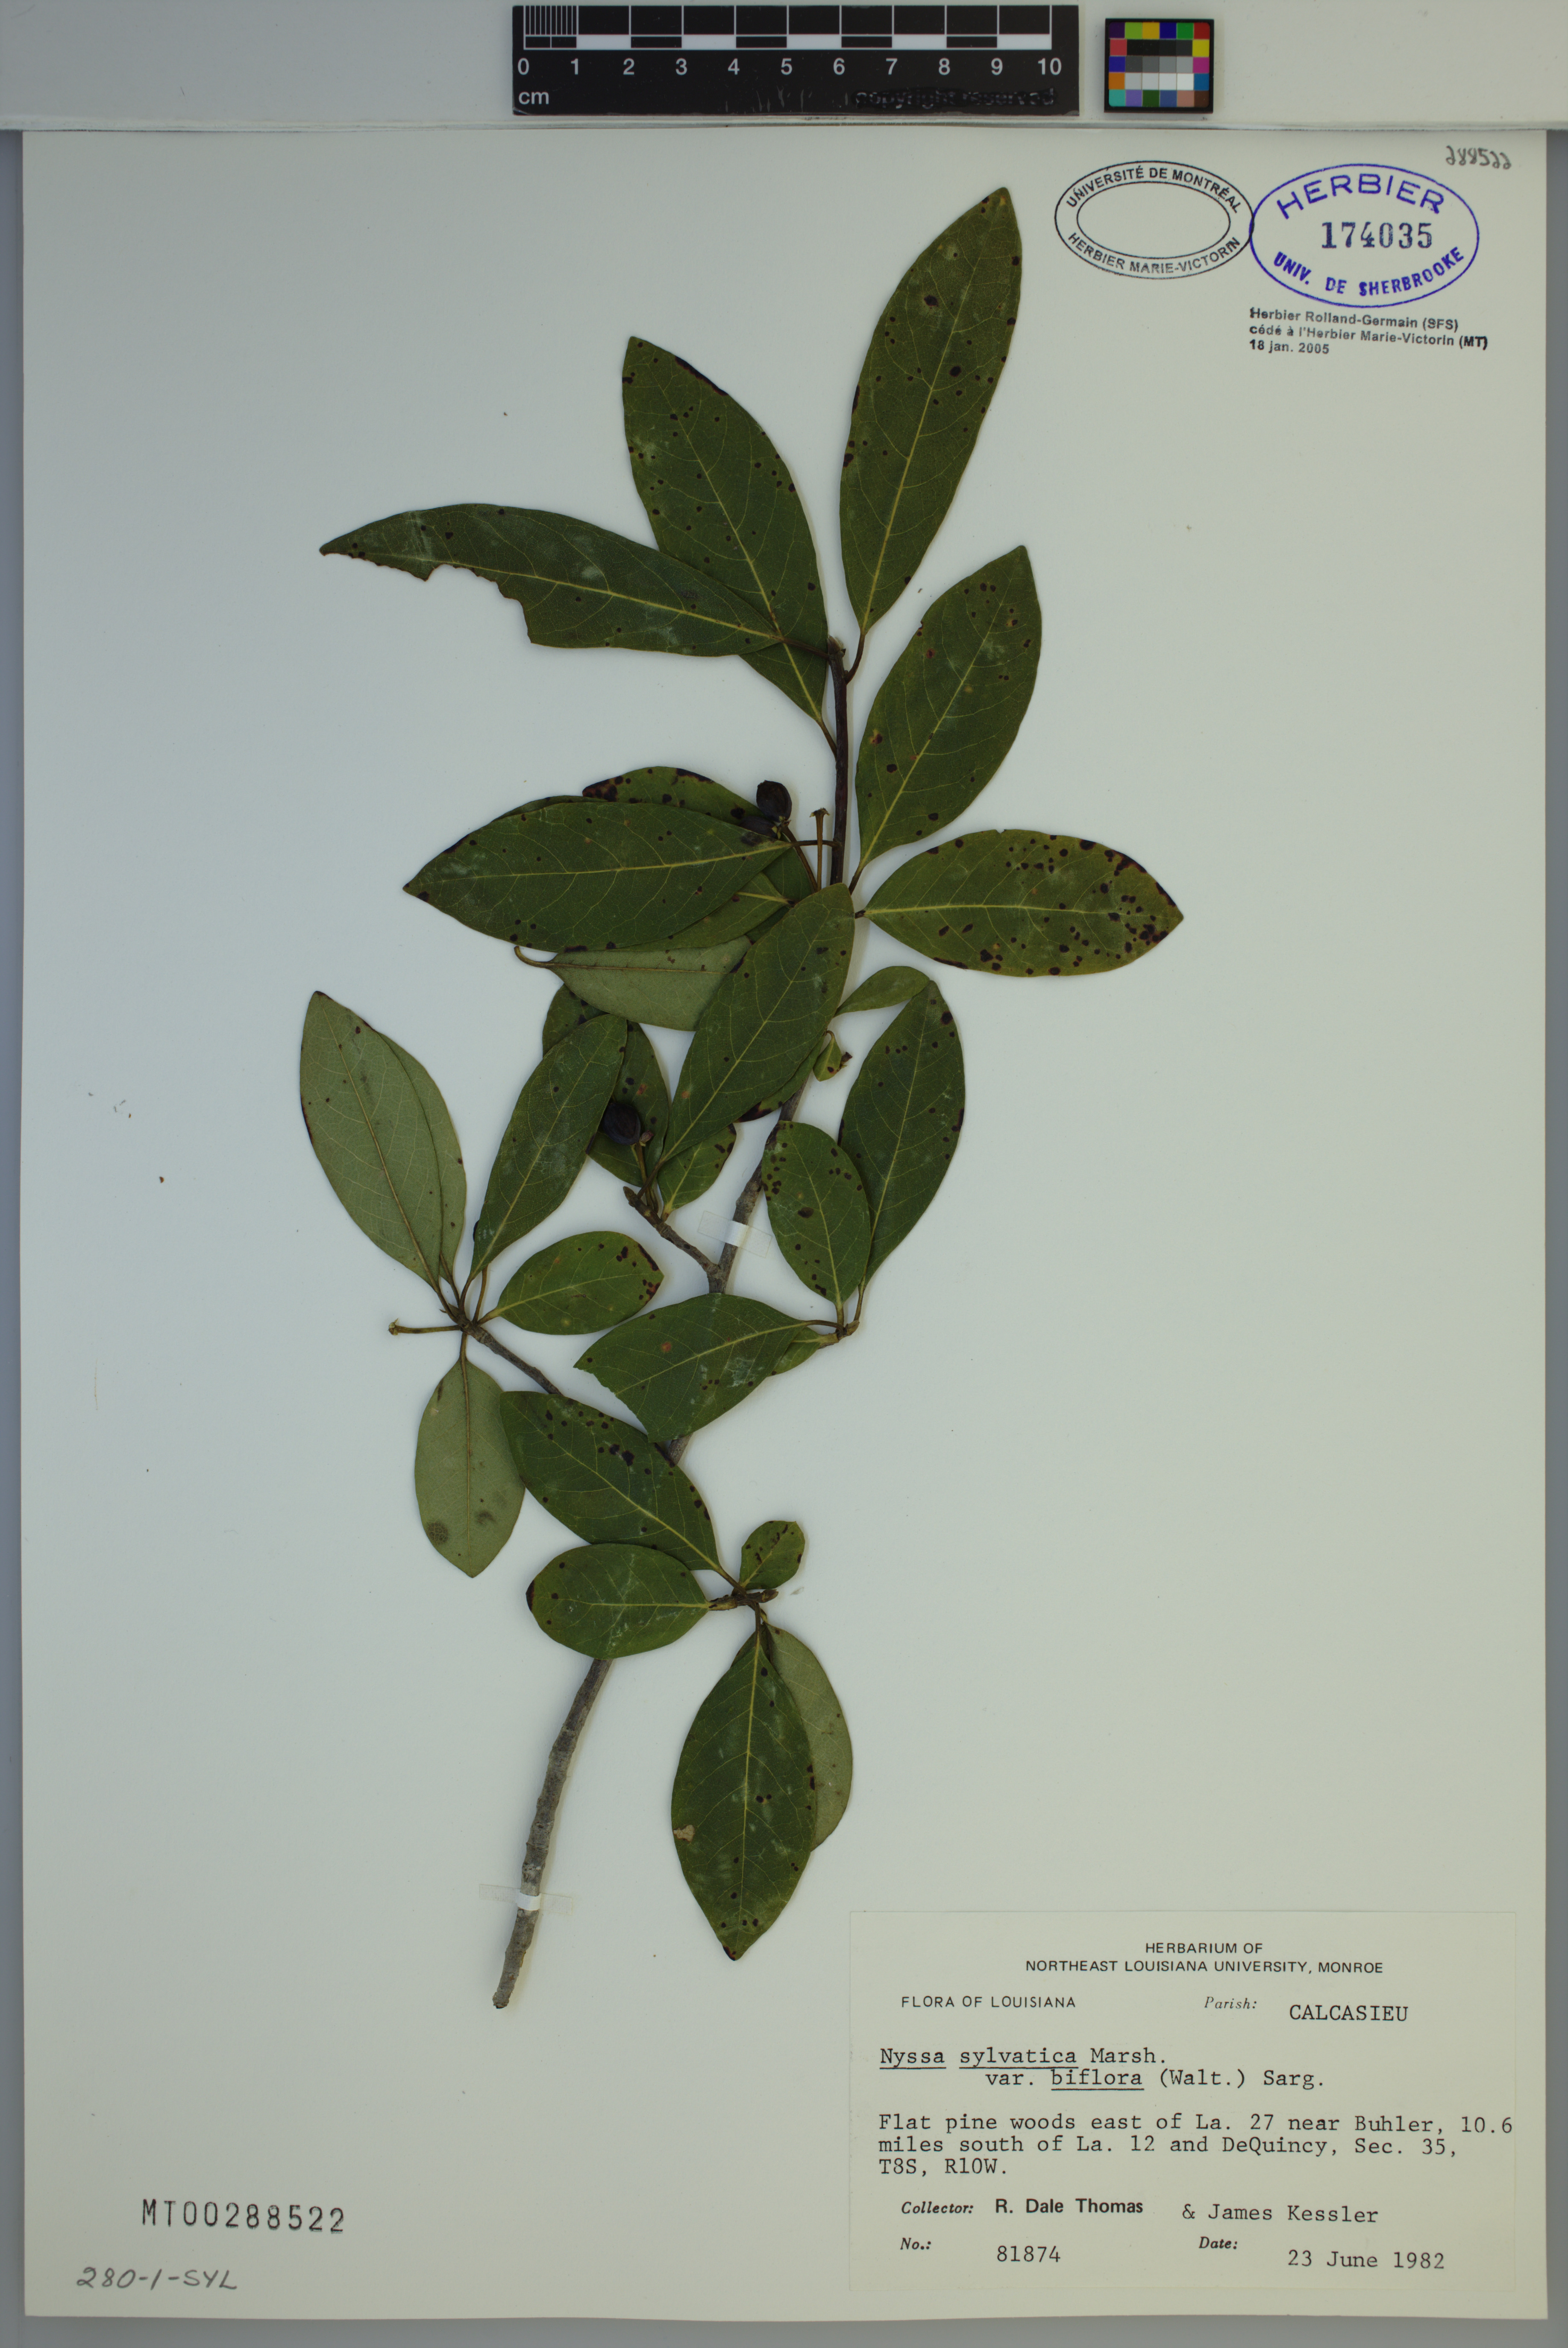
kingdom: Plantae
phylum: Tracheophyta
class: Magnoliopsida
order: Cornales
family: Nyssaceae
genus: Nyssa
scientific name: Nyssa biflora
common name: Swamp blackgum
